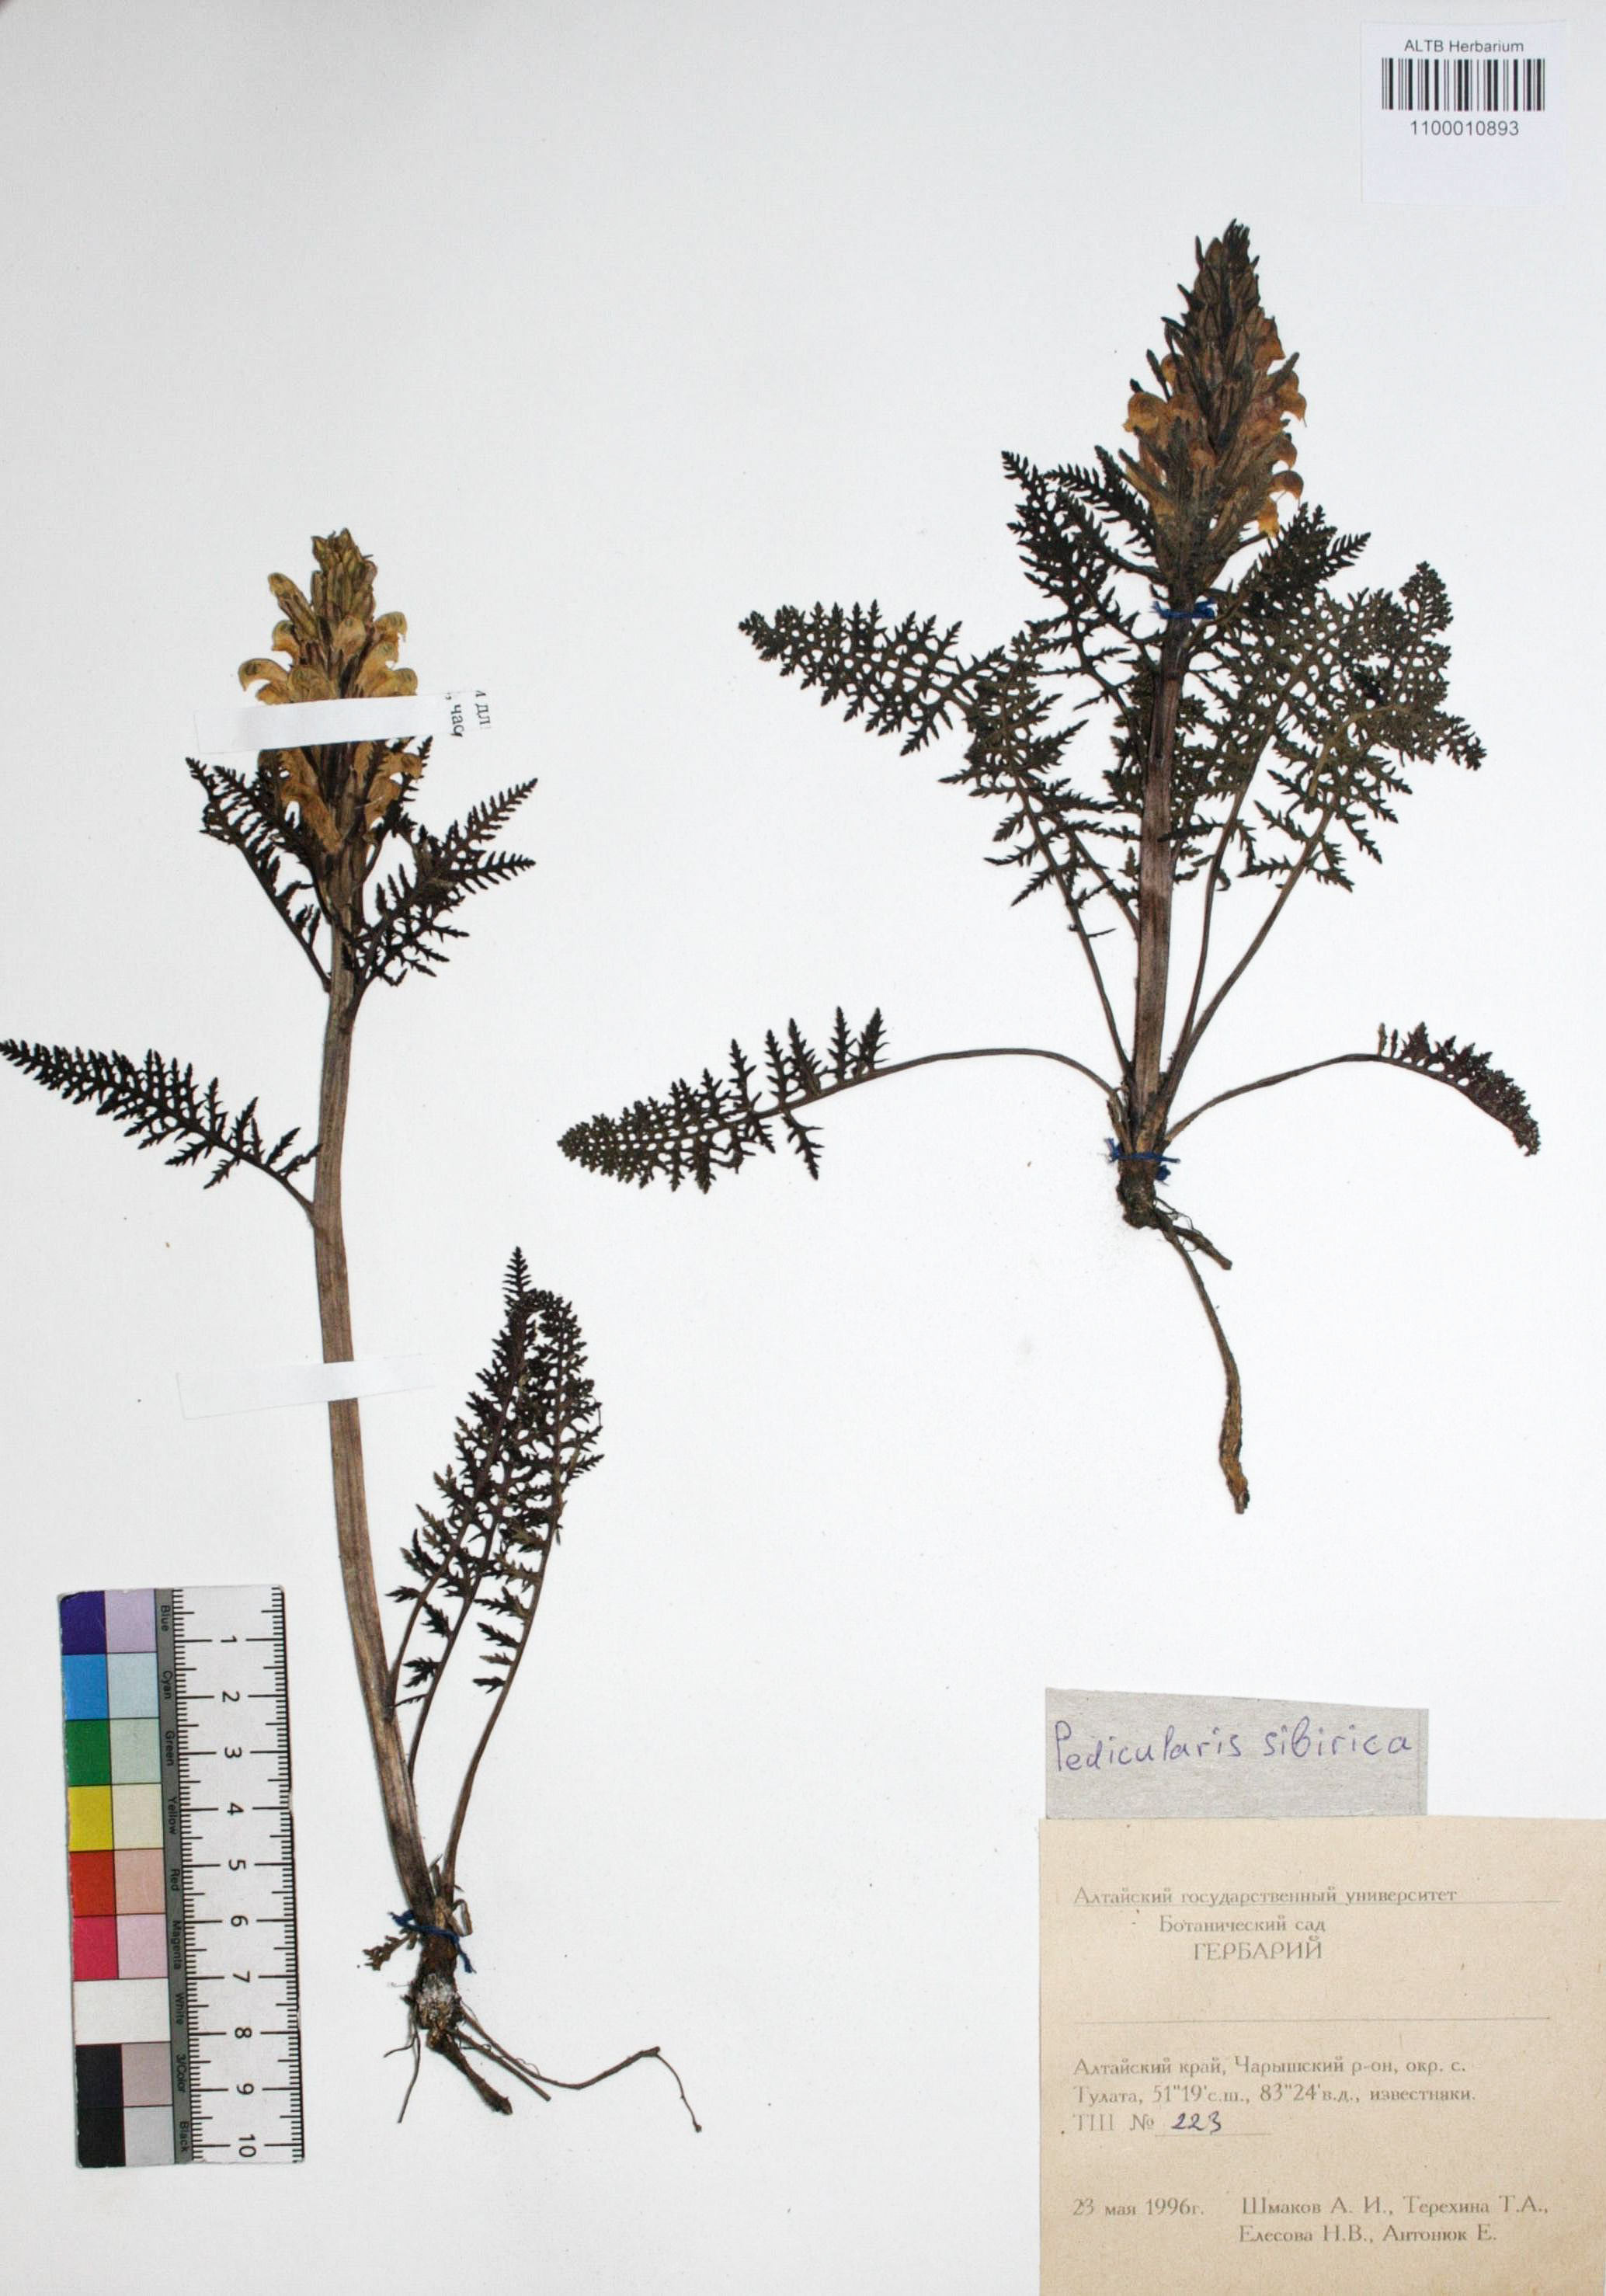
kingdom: Plantae
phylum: Tracheophyta
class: Magnoliopsida
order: Lamiales
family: Orobanchaceae
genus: Pedicularis
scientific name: Pedicularis sibirica
